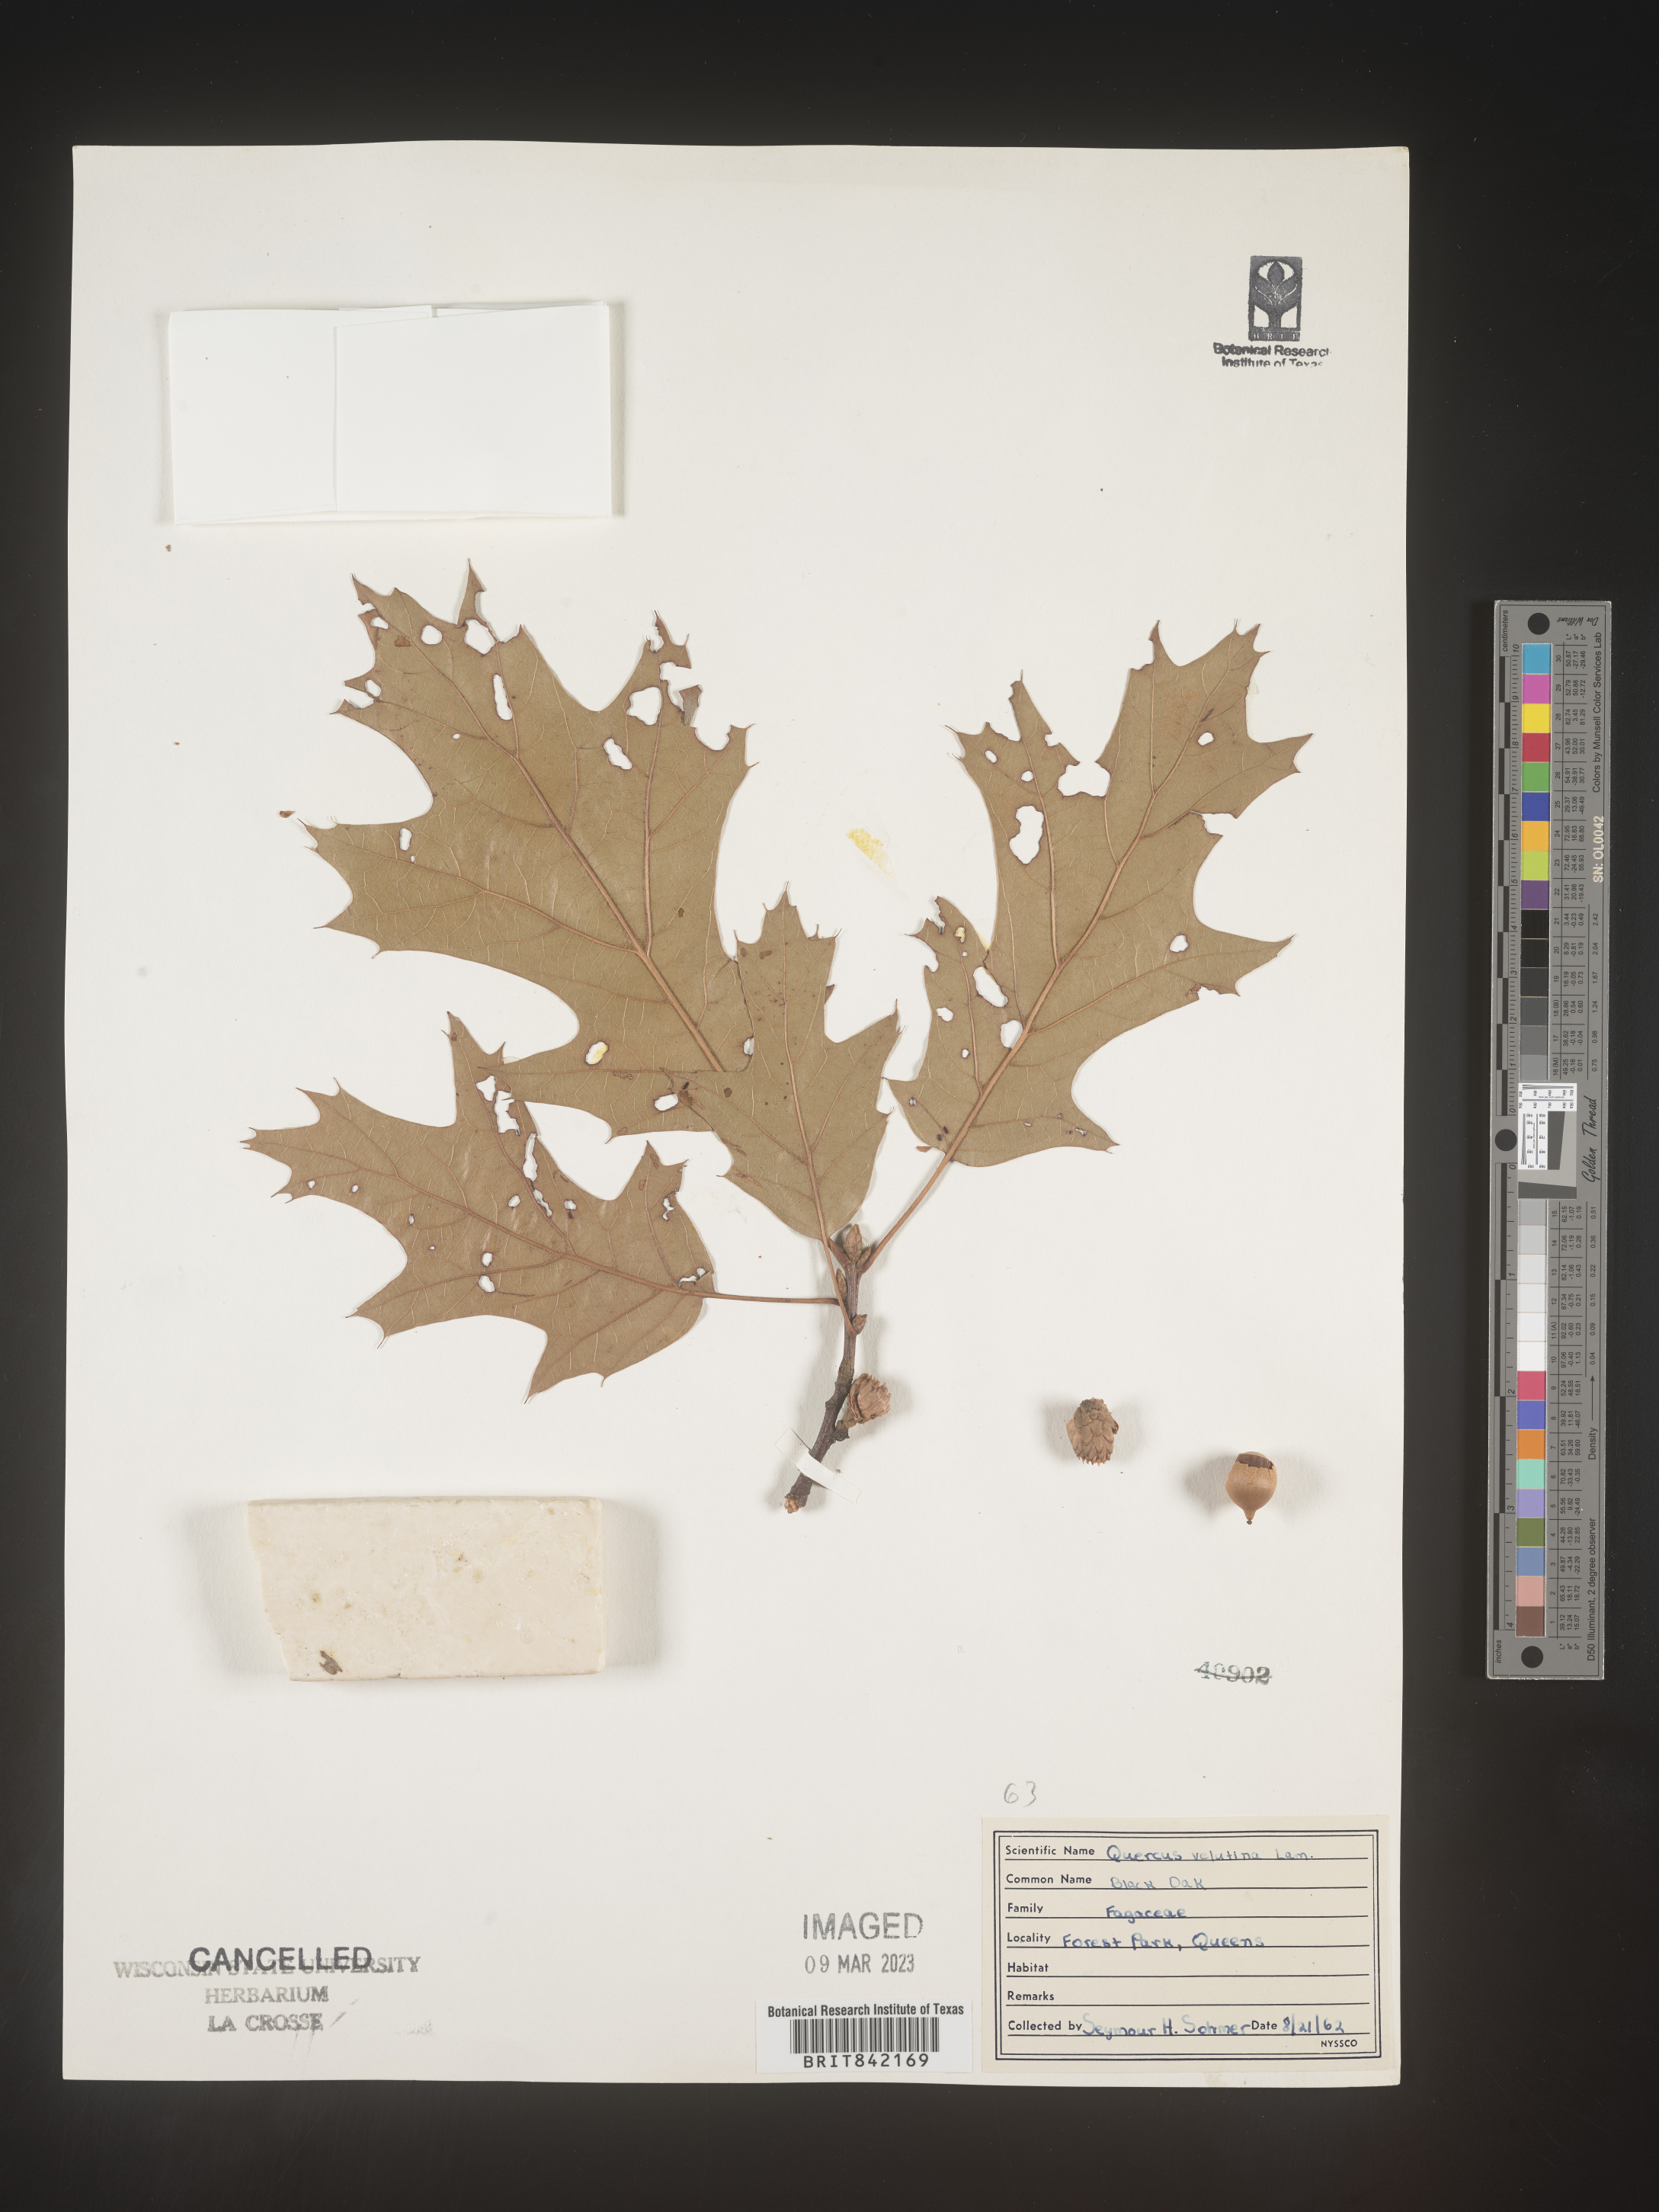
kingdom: Plantae
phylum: Tracheophyta
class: Magnoliopsida
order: Fagales
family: Fagaceae
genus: Quercus
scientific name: Quercus velutina
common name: Black oak
